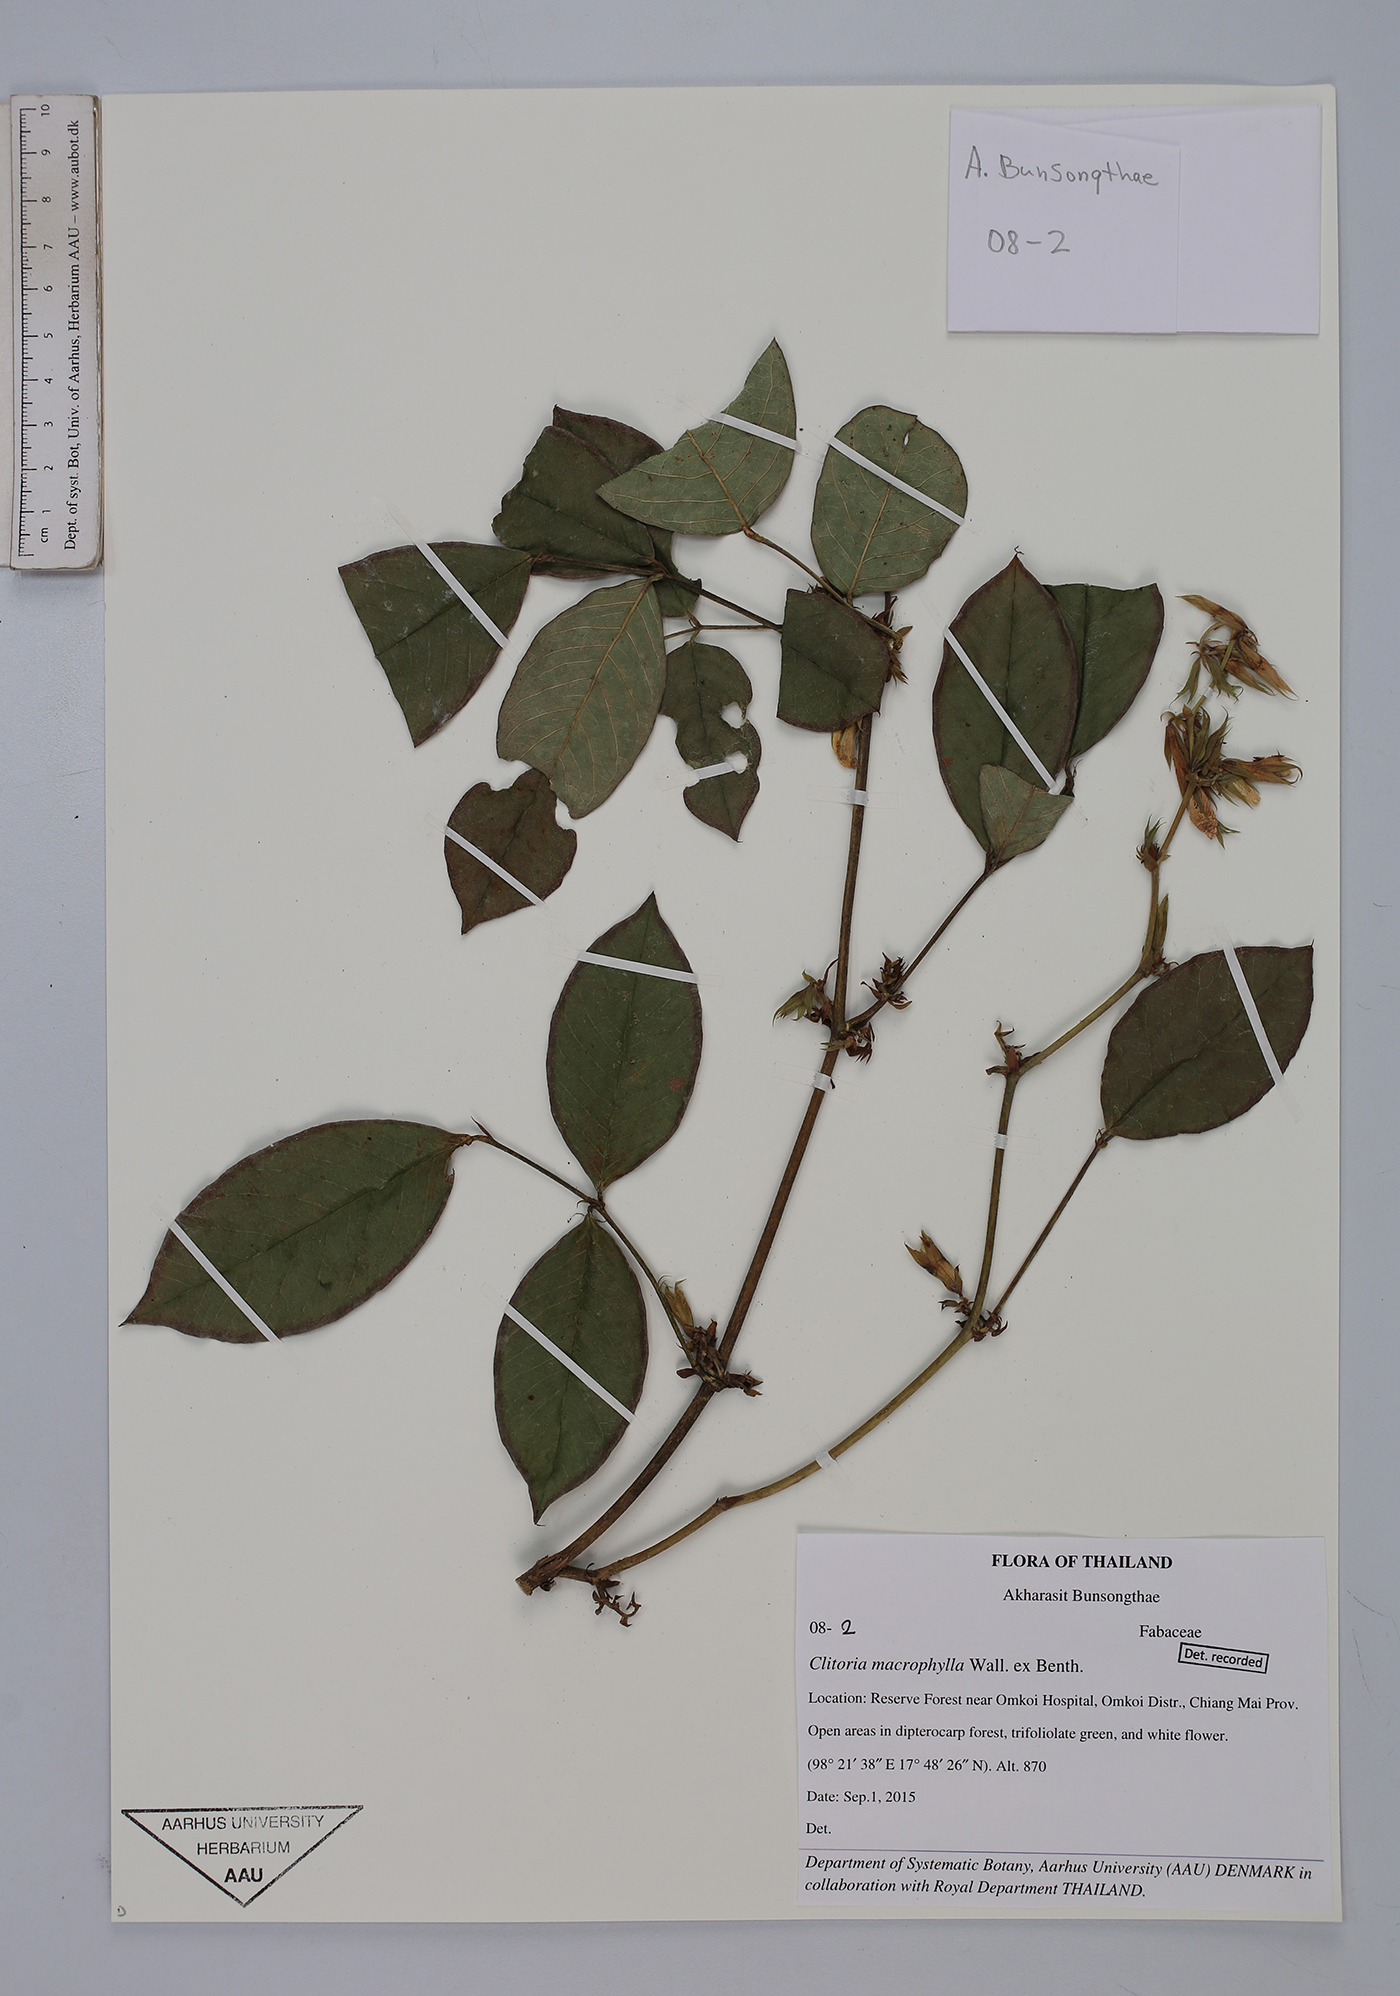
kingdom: Plantae
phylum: Tracheophyta
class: Magnoliopsida
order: Fabales
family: Fabaceae
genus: Clitoria
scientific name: Clitoria macrophylla
